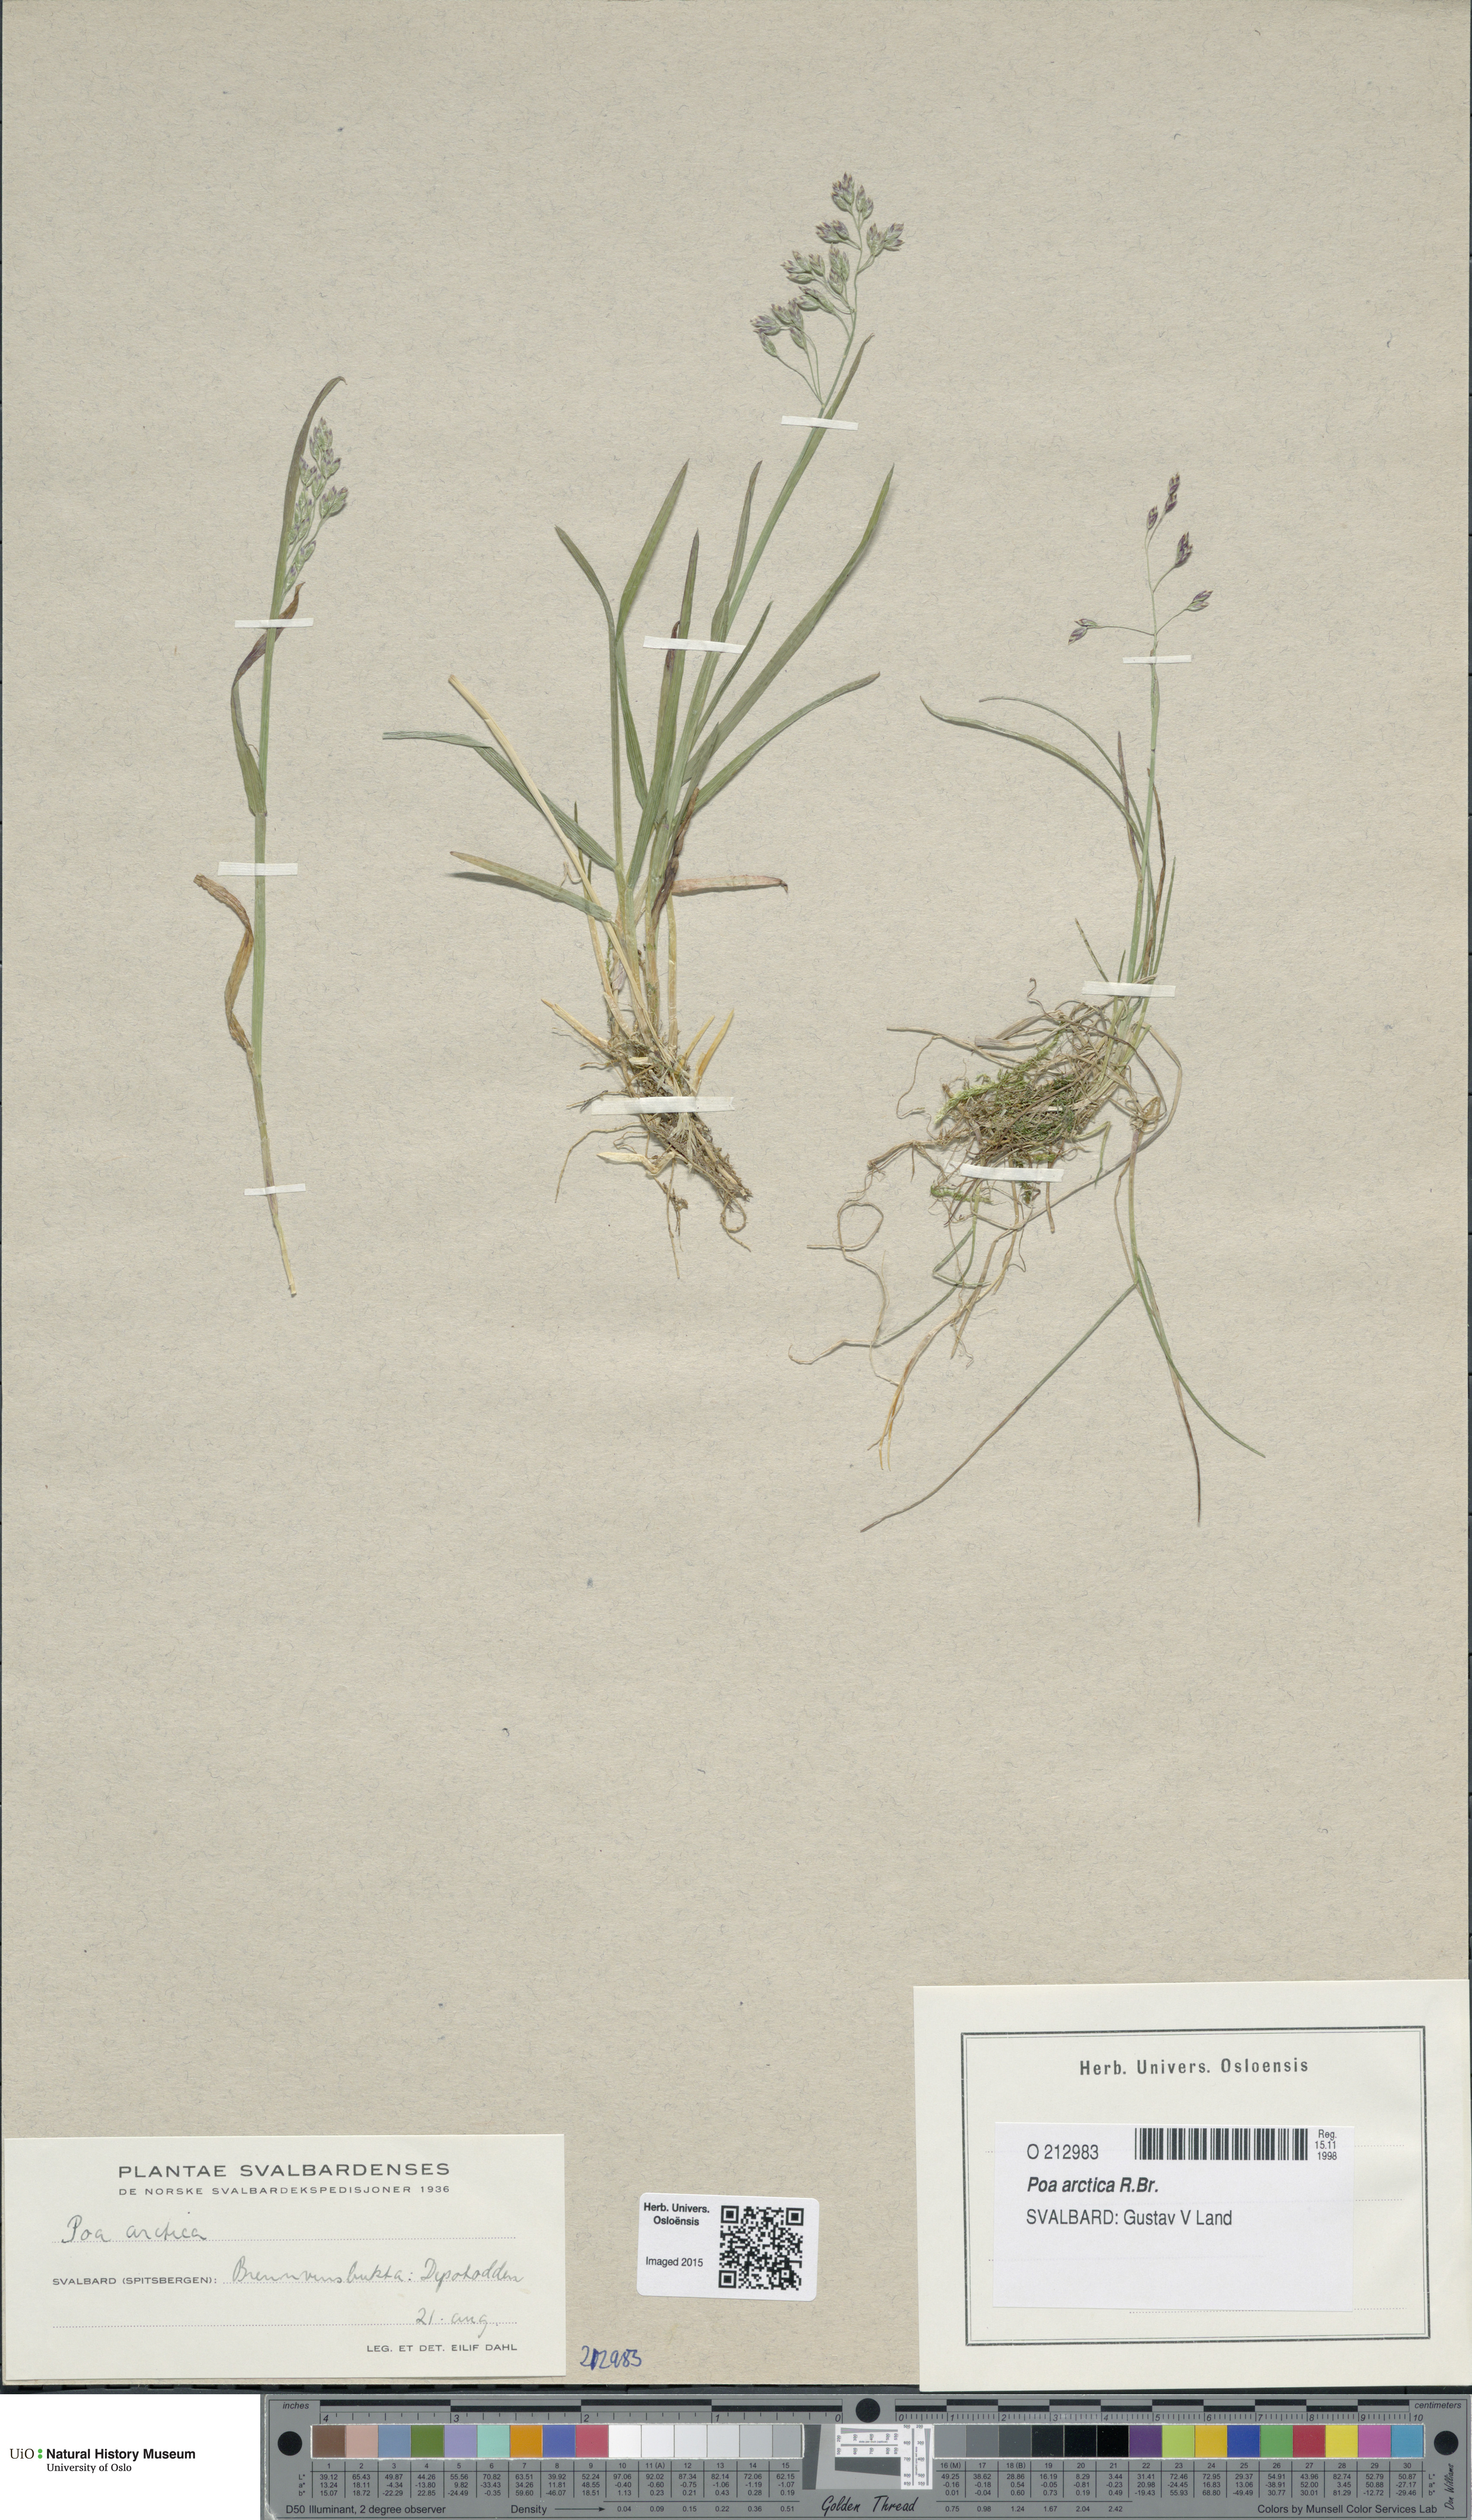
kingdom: Plantae
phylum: Tracheophyta
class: Liliopsida
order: Poales
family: Poaceae
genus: Poa
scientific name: Poa arctica
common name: Arctic bluegrass
